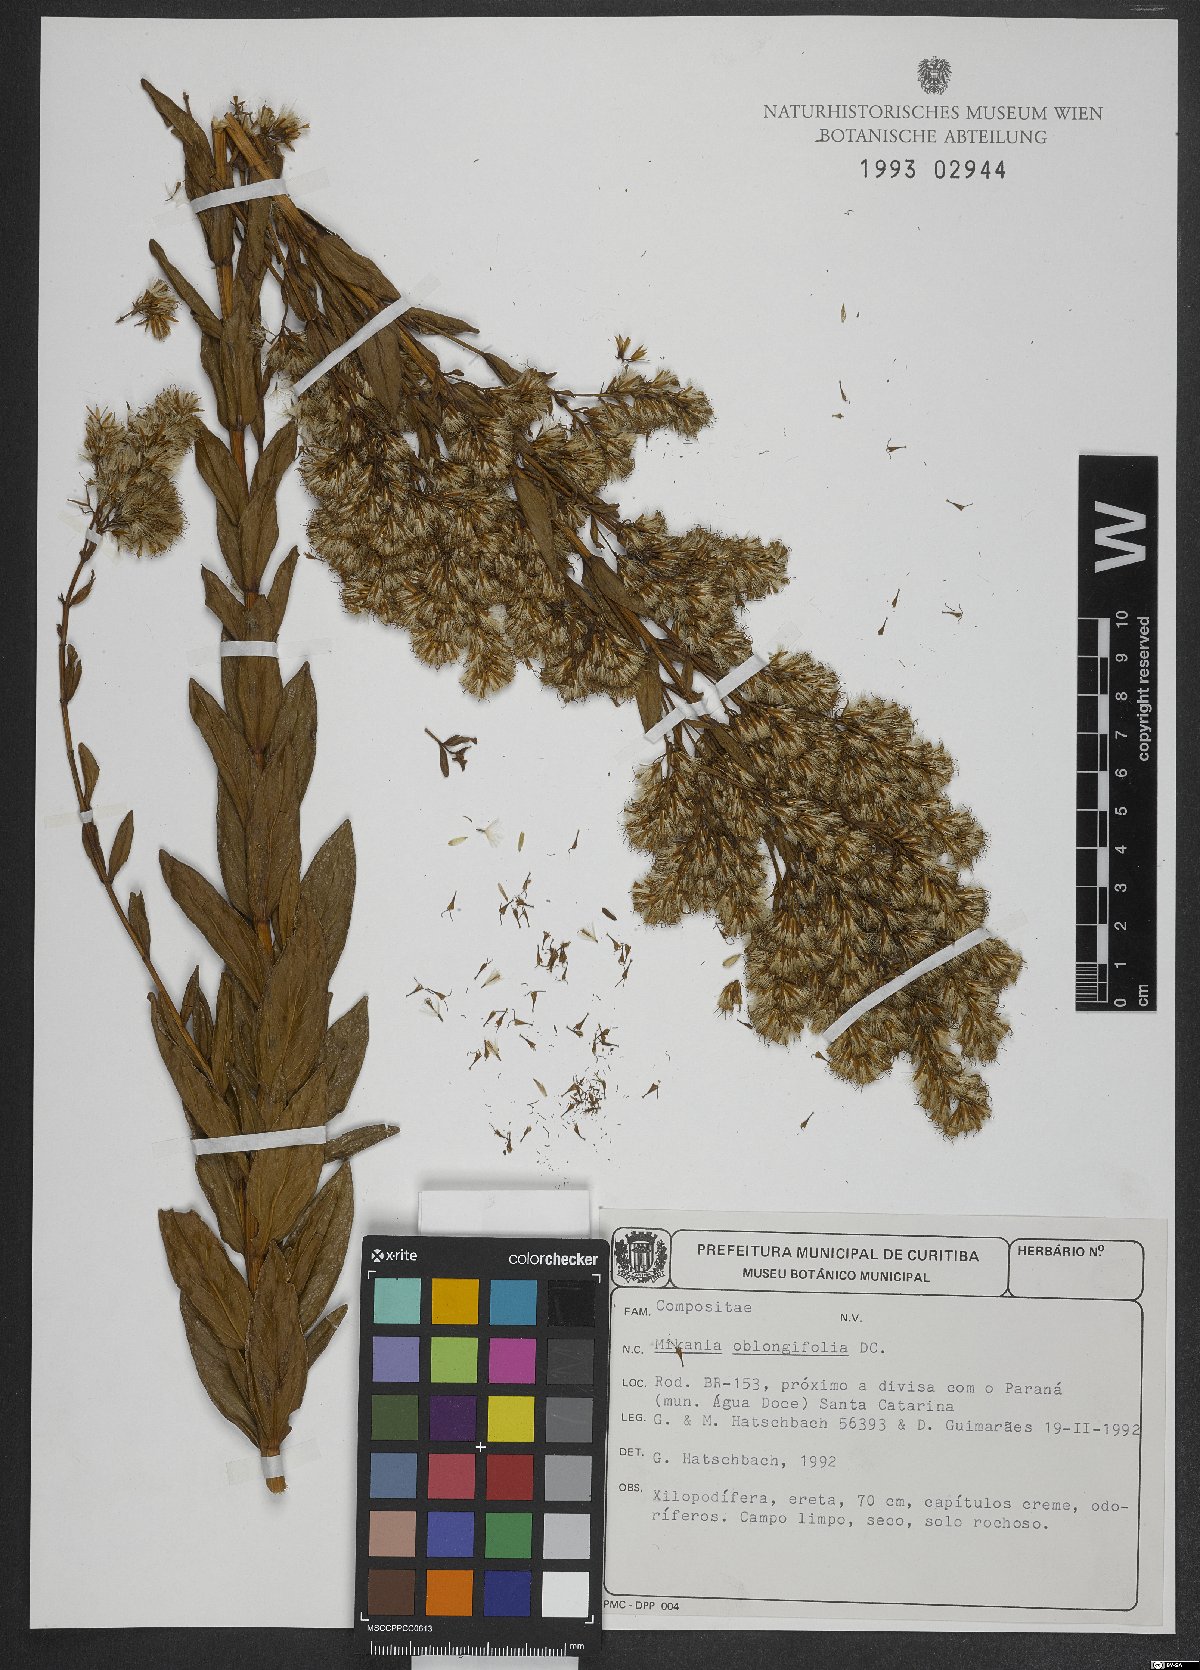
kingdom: Plantae
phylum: Tracheophyta
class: Magnoliopsida
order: Asterales
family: Asteraceae
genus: Mikania
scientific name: Mikania oblongifolia
